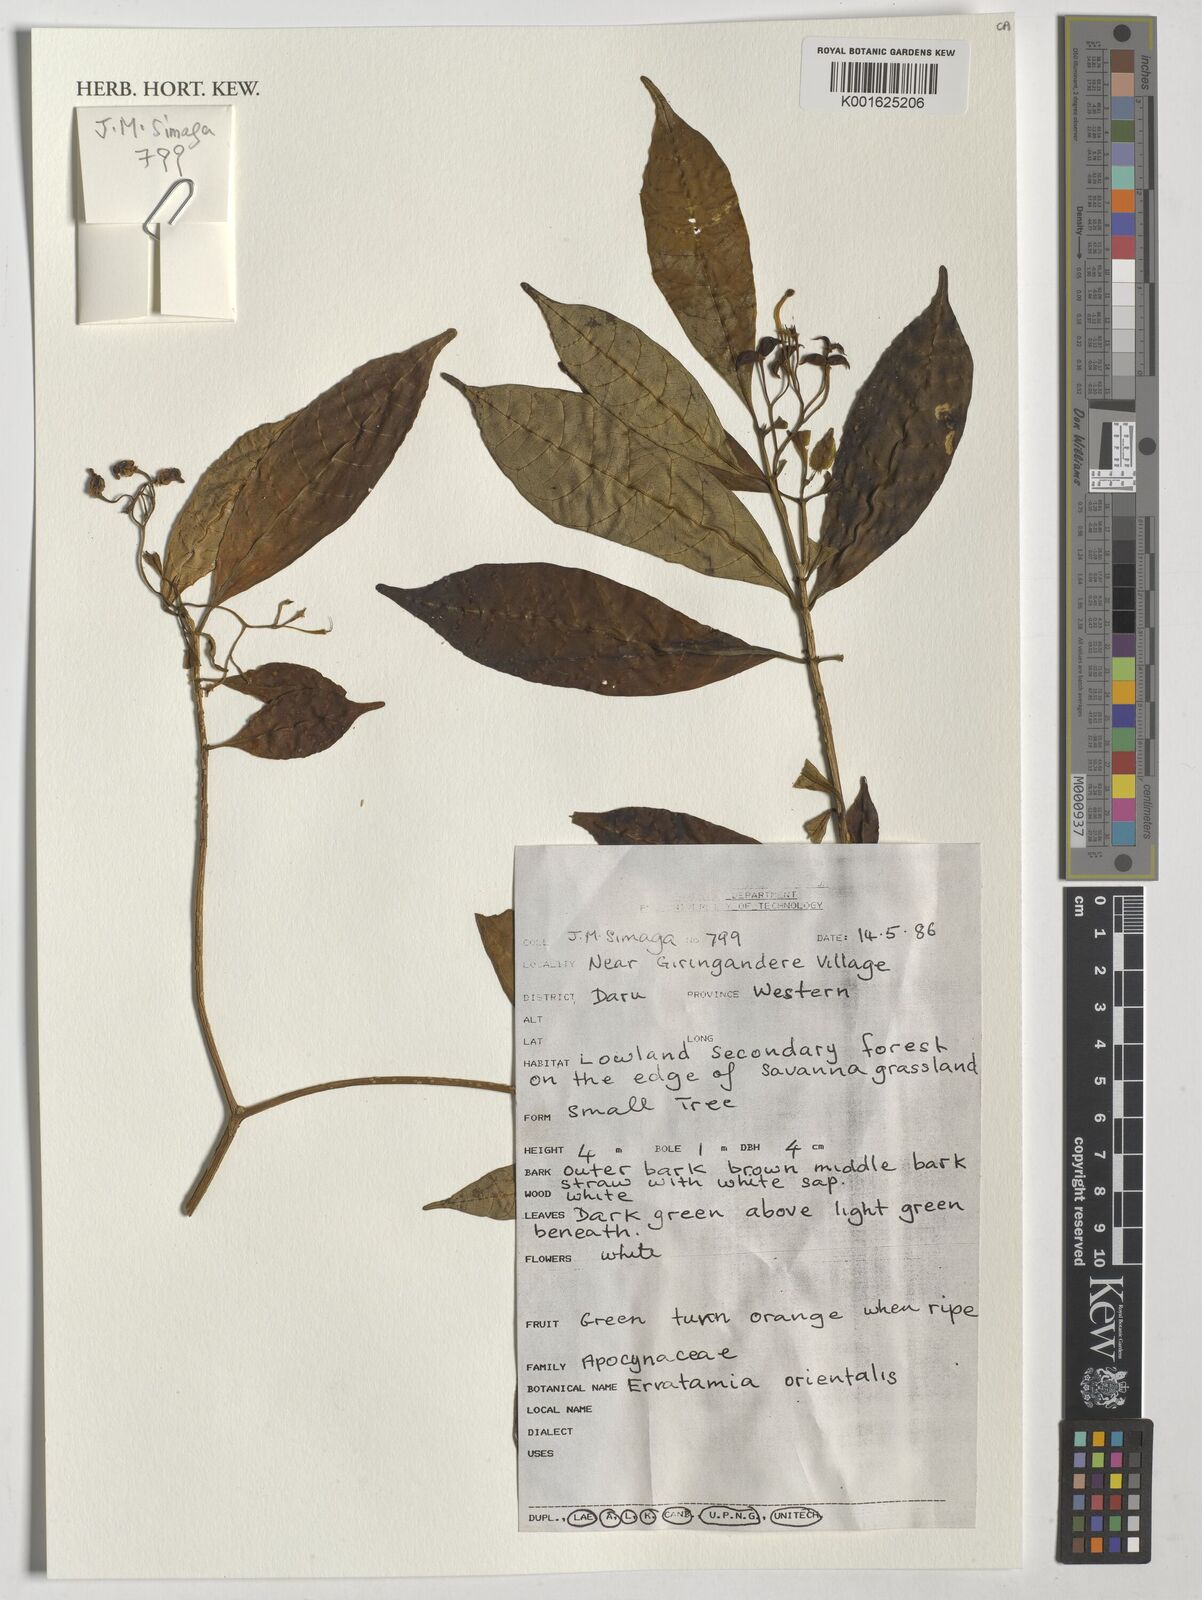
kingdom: Plantae
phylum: Tracheophyta
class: Magnoliopsida
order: Gentianales
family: Apocynaceae
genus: Tabernaemontana
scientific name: Tabernaemontana pandacaqui
